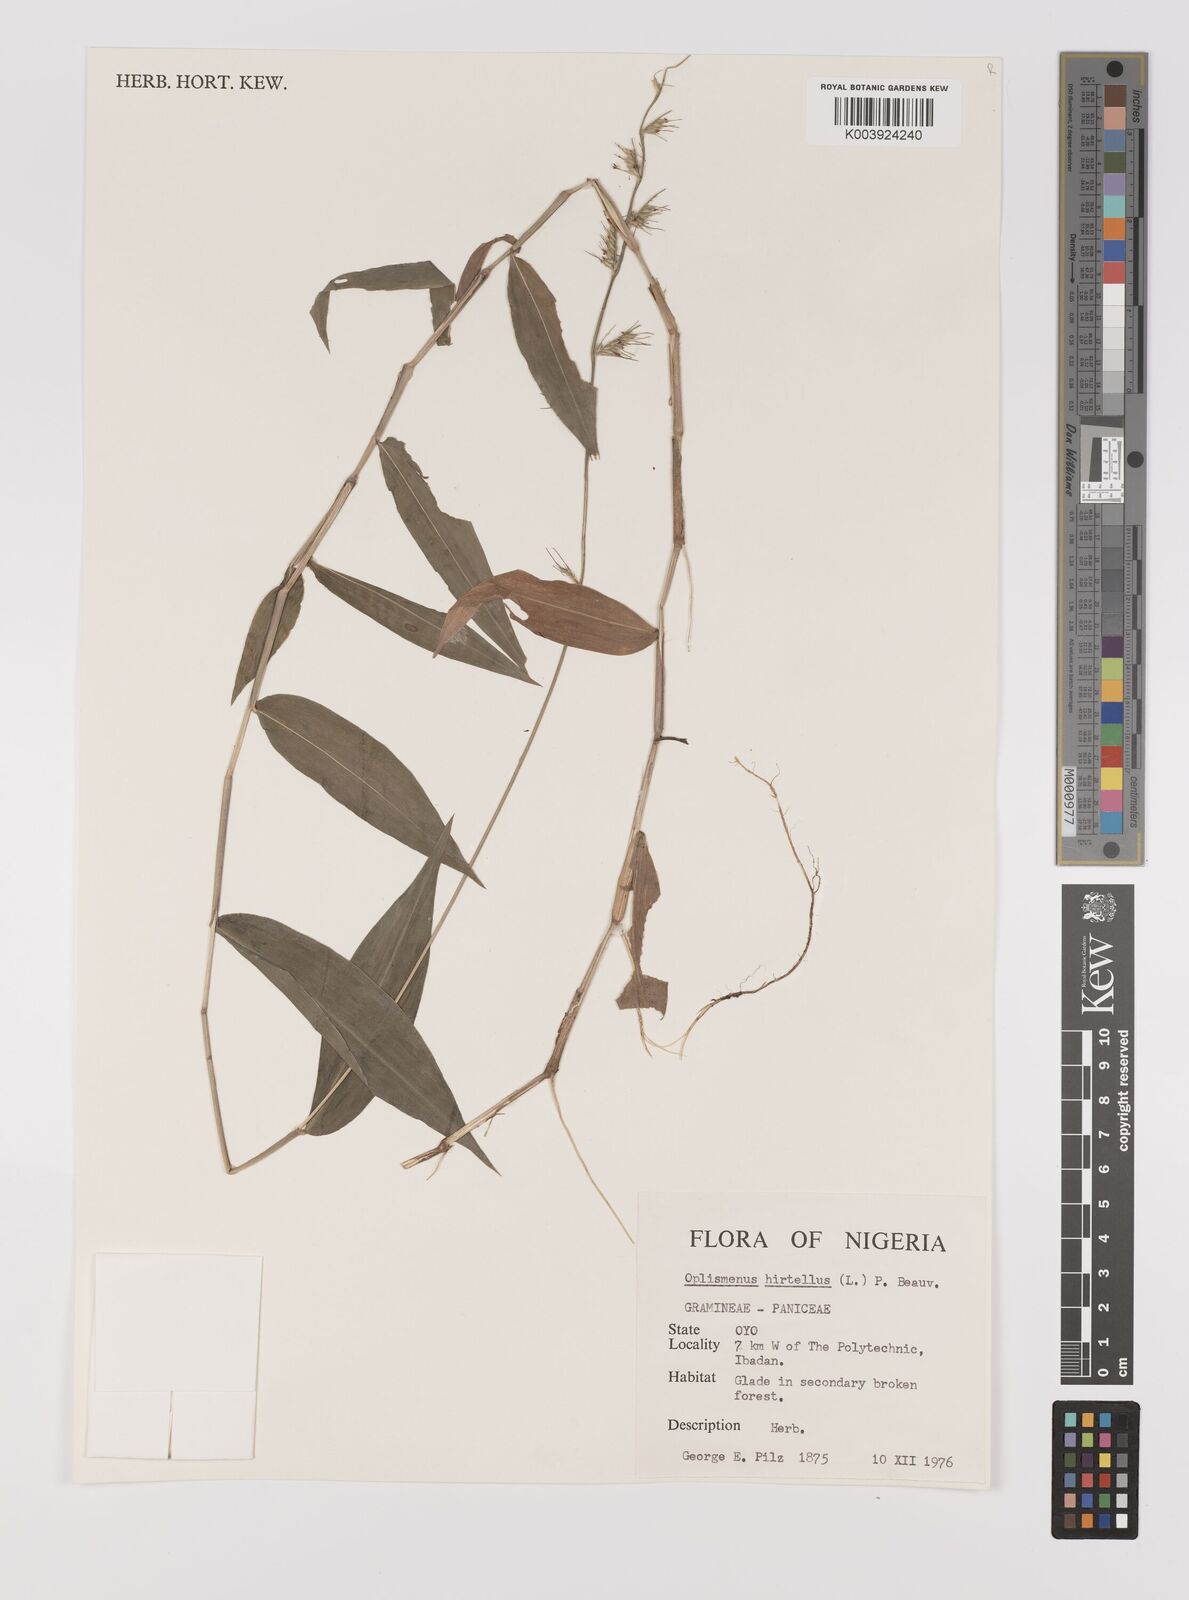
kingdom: Plantae
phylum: Tracheophyta
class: Liliopsida
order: Poales
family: Poaceae
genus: Oplismenus
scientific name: Oplismenus hirtellus
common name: Basketgrass
